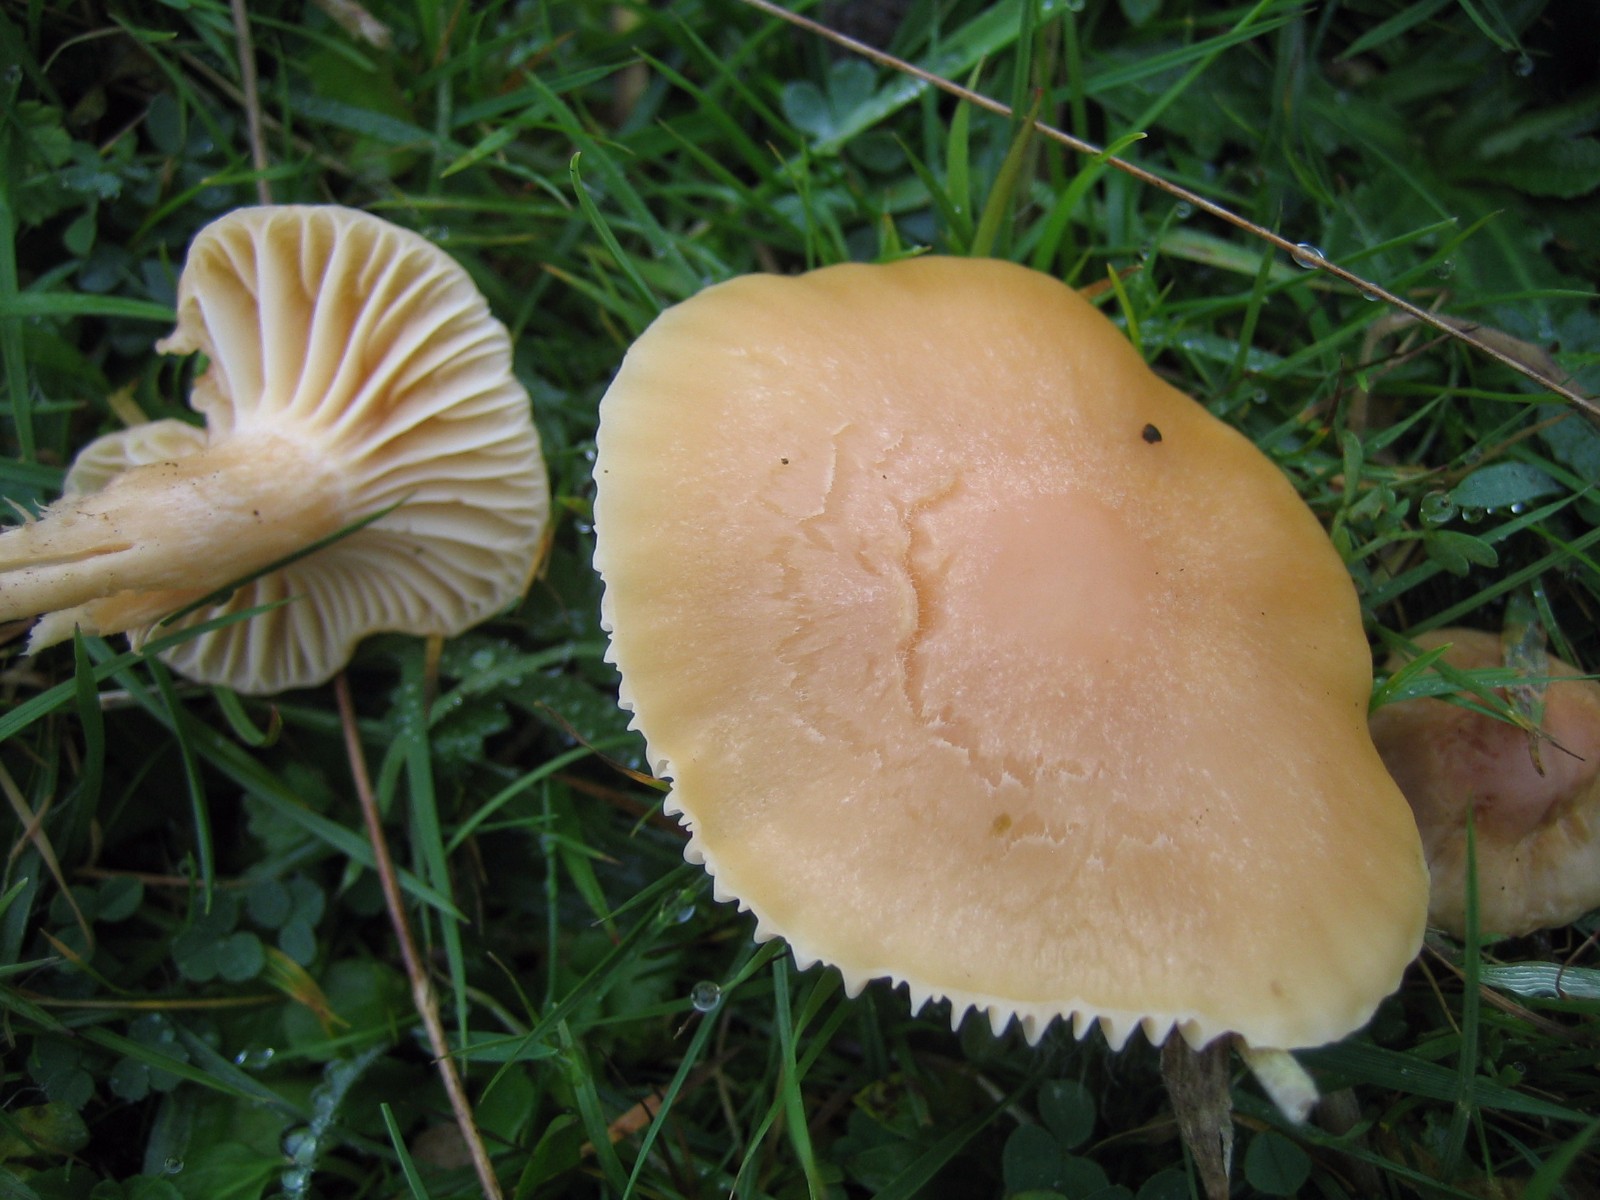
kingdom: Fungi
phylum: Basidiomycota
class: Agaricomycetes
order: Agaricales
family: Hygrophoraceae
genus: Cuphophyllus
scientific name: Cuphophyllus pratensis
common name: eng-vokshat
